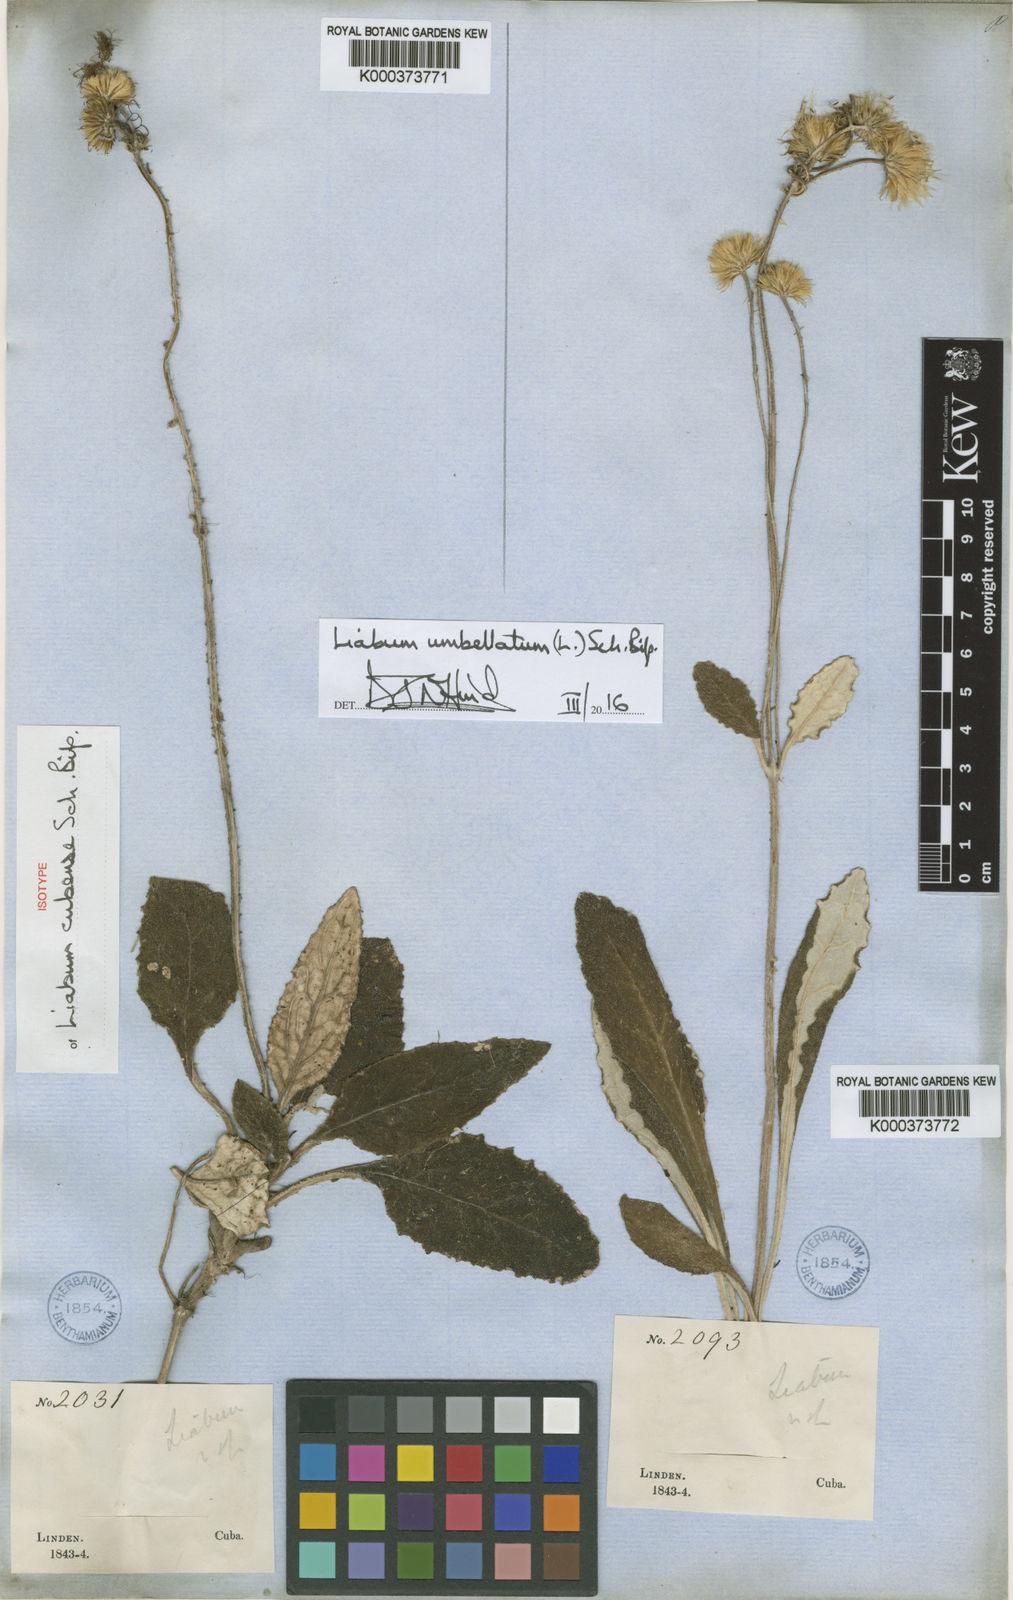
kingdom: Plantae
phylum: Tracheophyta
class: Magnoliopsida
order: Asterales
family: Asteraceae
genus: Liabum
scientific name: Liabum umbellatum
